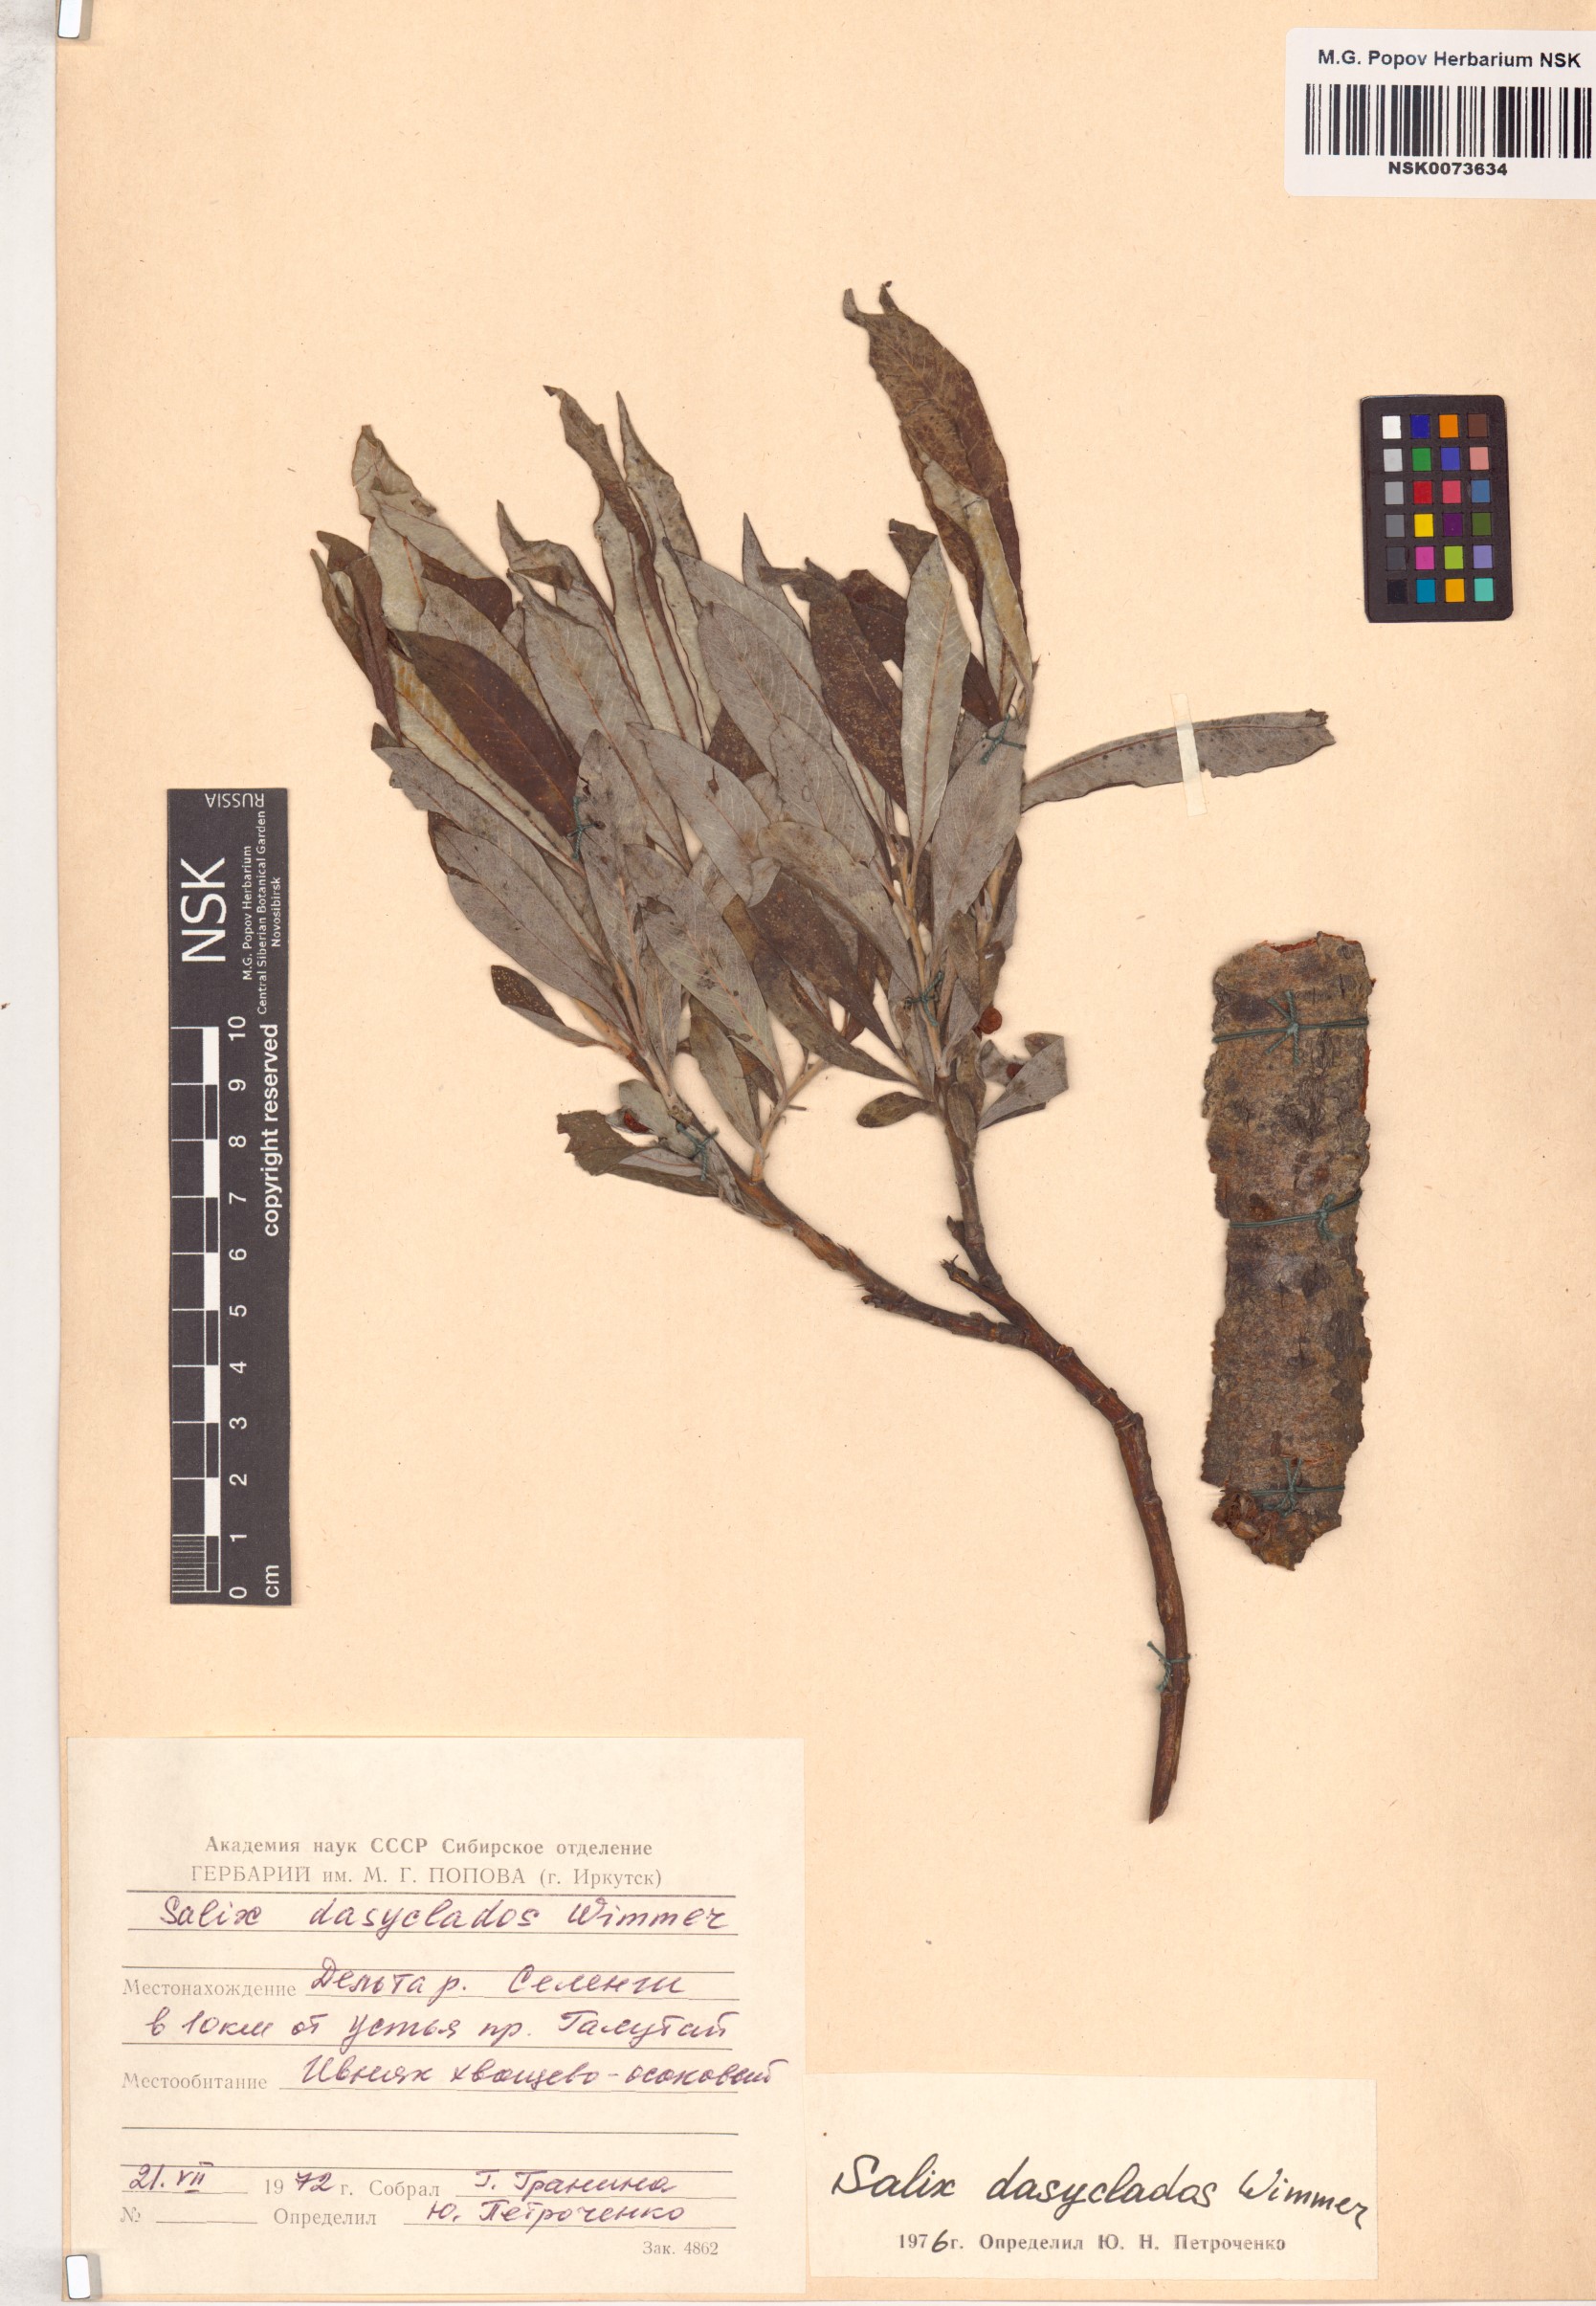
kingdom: Plantae
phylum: Tracheophyta
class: Magnoliopsida
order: Malpighiales
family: Salicaceae
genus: Salix
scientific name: Salix gmelinii
